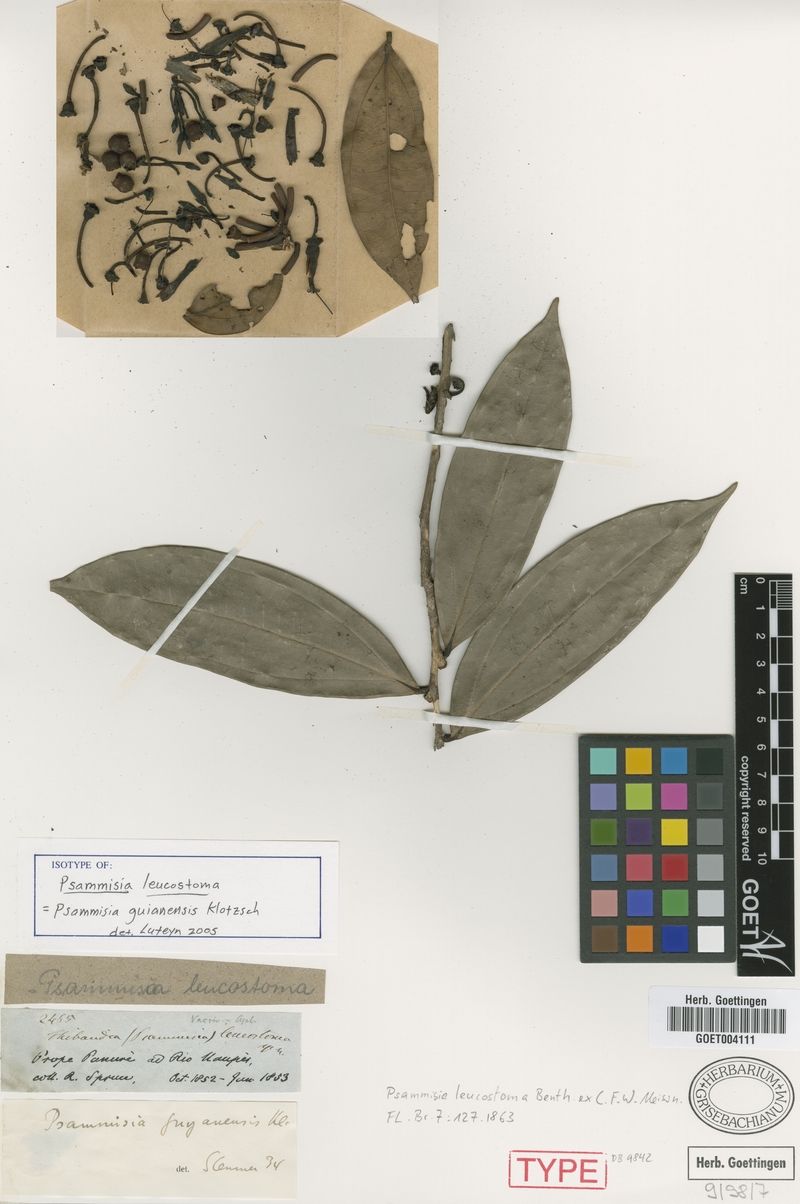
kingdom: Plantae
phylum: Tracheophyta
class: Magnoliopsida
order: Ericales
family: Ericaceae
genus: Psammisia
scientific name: Psammisia coarctata
